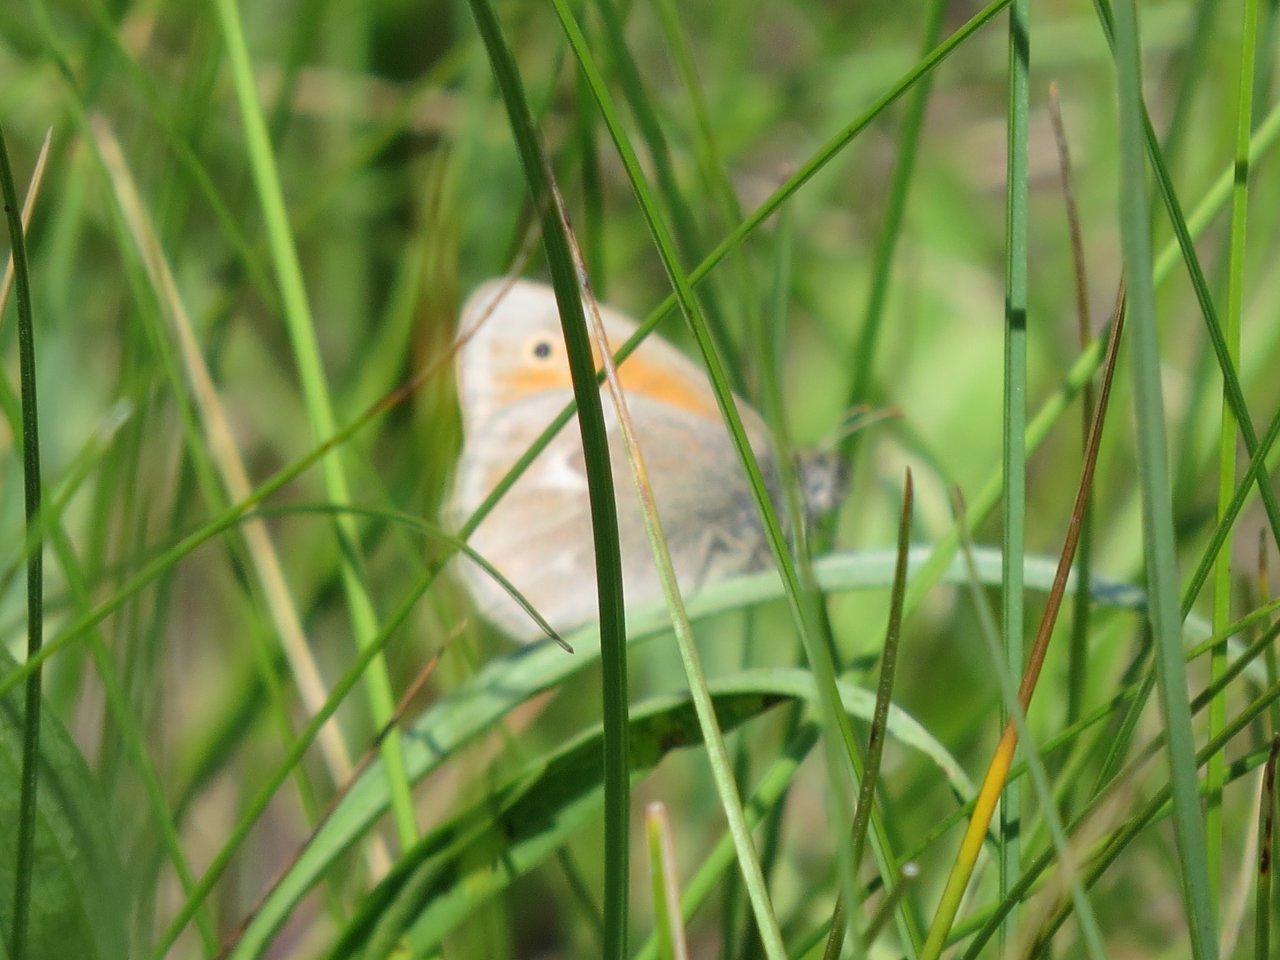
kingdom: Animalia
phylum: Arthropoda
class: Insecta
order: Lepidoptera
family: Nymphalidae
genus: Coenonympha
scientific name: Coenonympha tullia
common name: Large Heath
